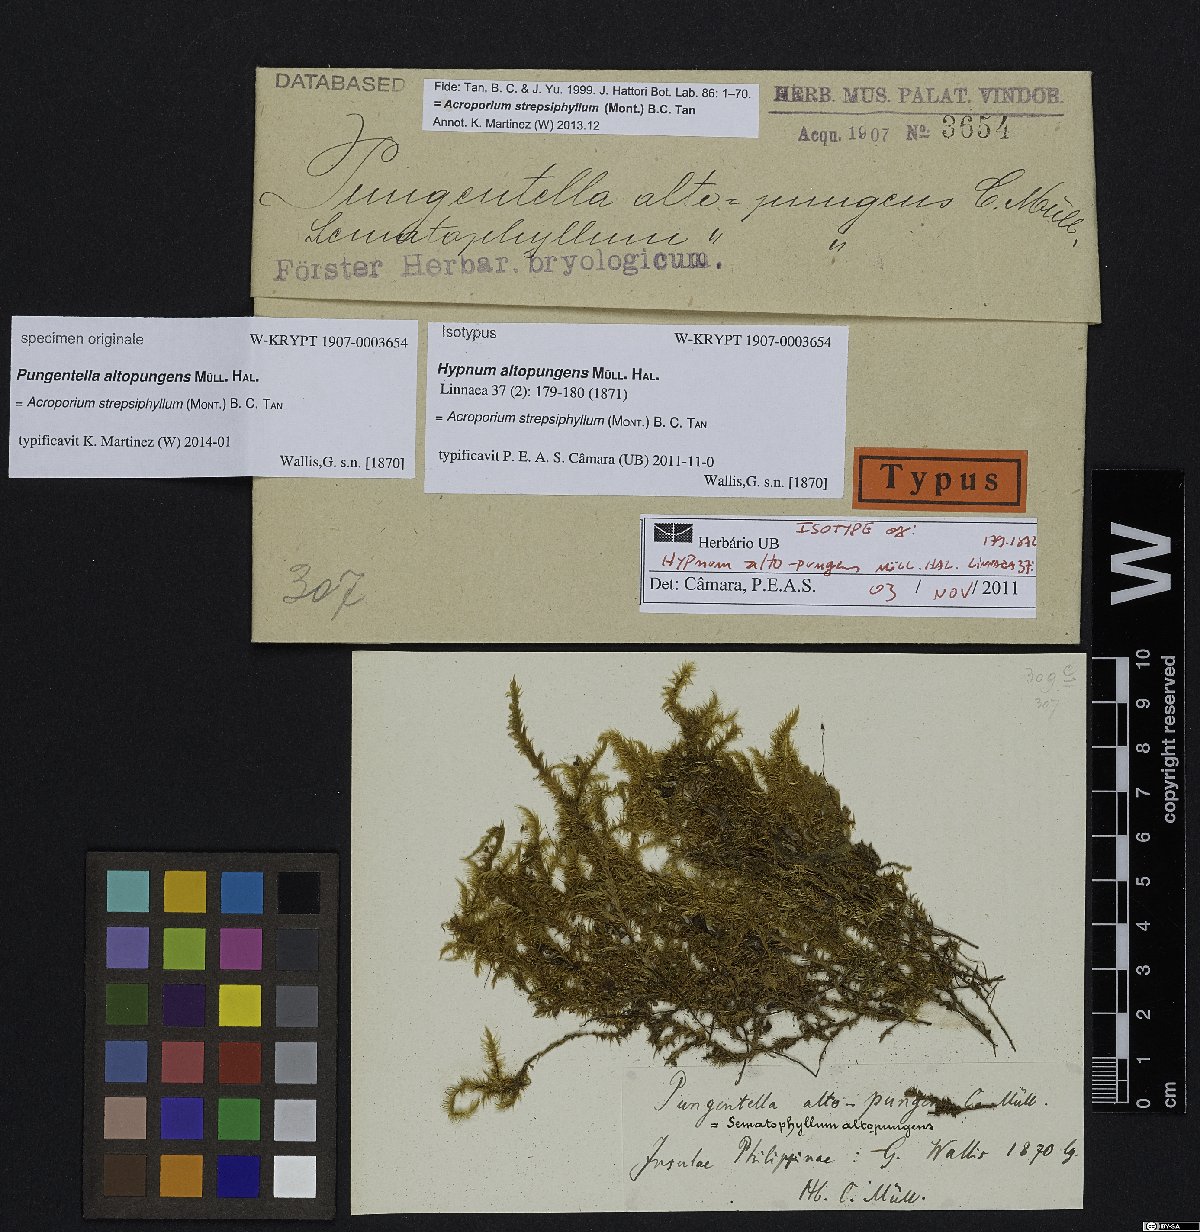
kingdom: Plantae
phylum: Bryophyta
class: Bryopsida
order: Hypnales
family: Sematophyllaceae
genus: Acroporium
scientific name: Acroporium strepsiphyllum
